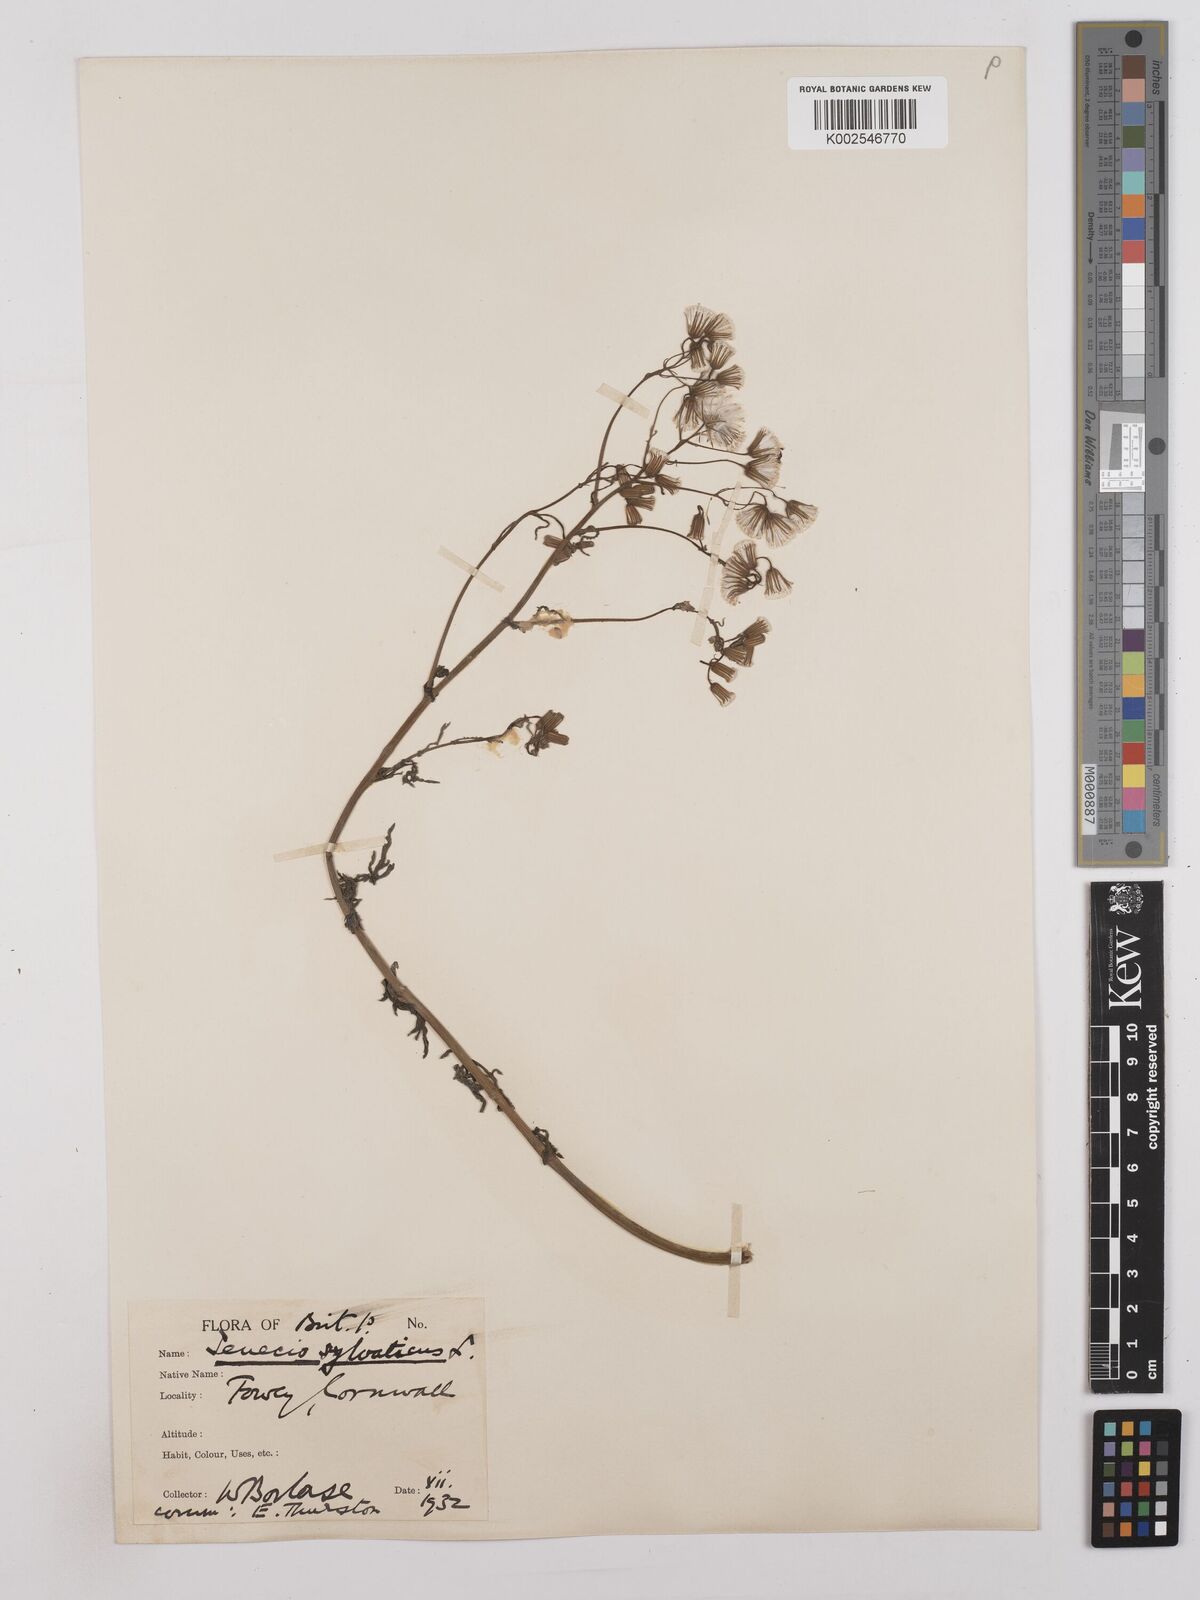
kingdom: Plantae
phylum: Tracheophyta
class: Magnoliopsida
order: Asterales
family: Asteraceae
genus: Senecio
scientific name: Senecio sylvaticus
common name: Woodland ragwort
